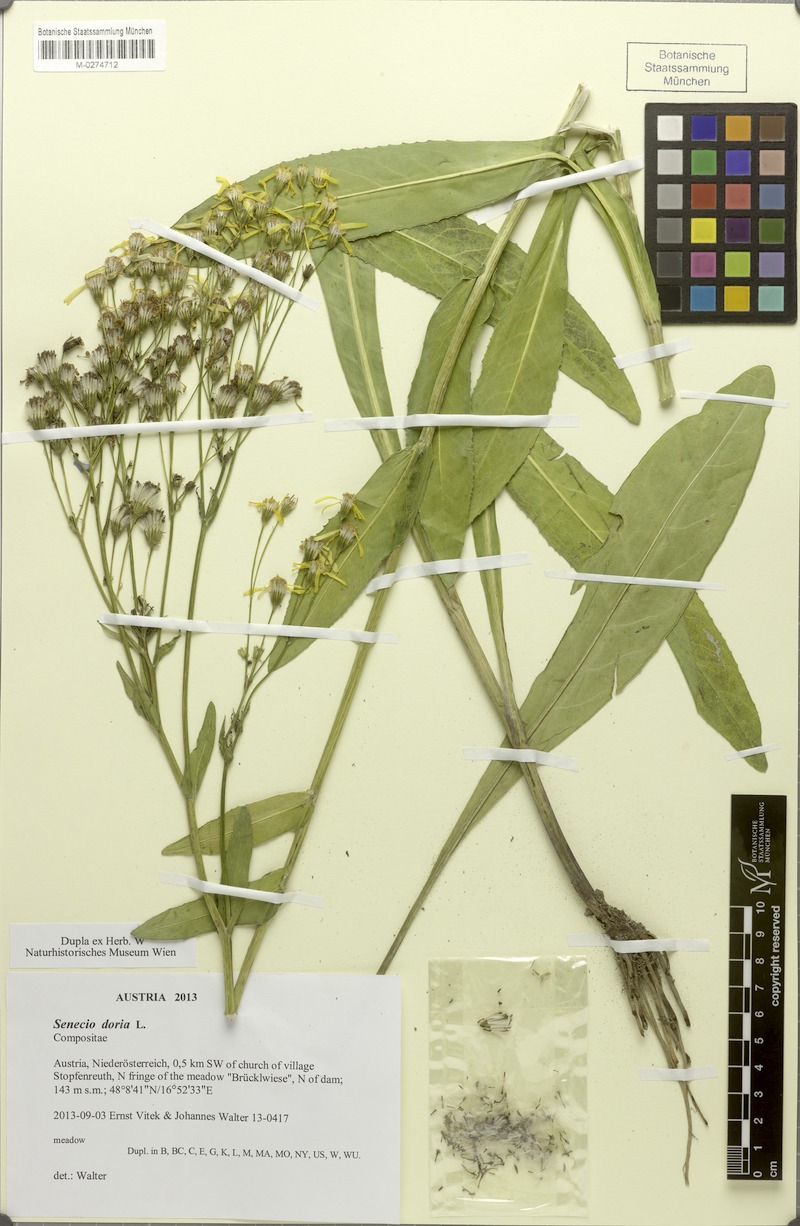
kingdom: Plantae
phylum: Tracheophyta
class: Magnoliopsida
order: Asterales
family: Asteraceae
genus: Senecio
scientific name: Senecio doria
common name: Golden ragwort
